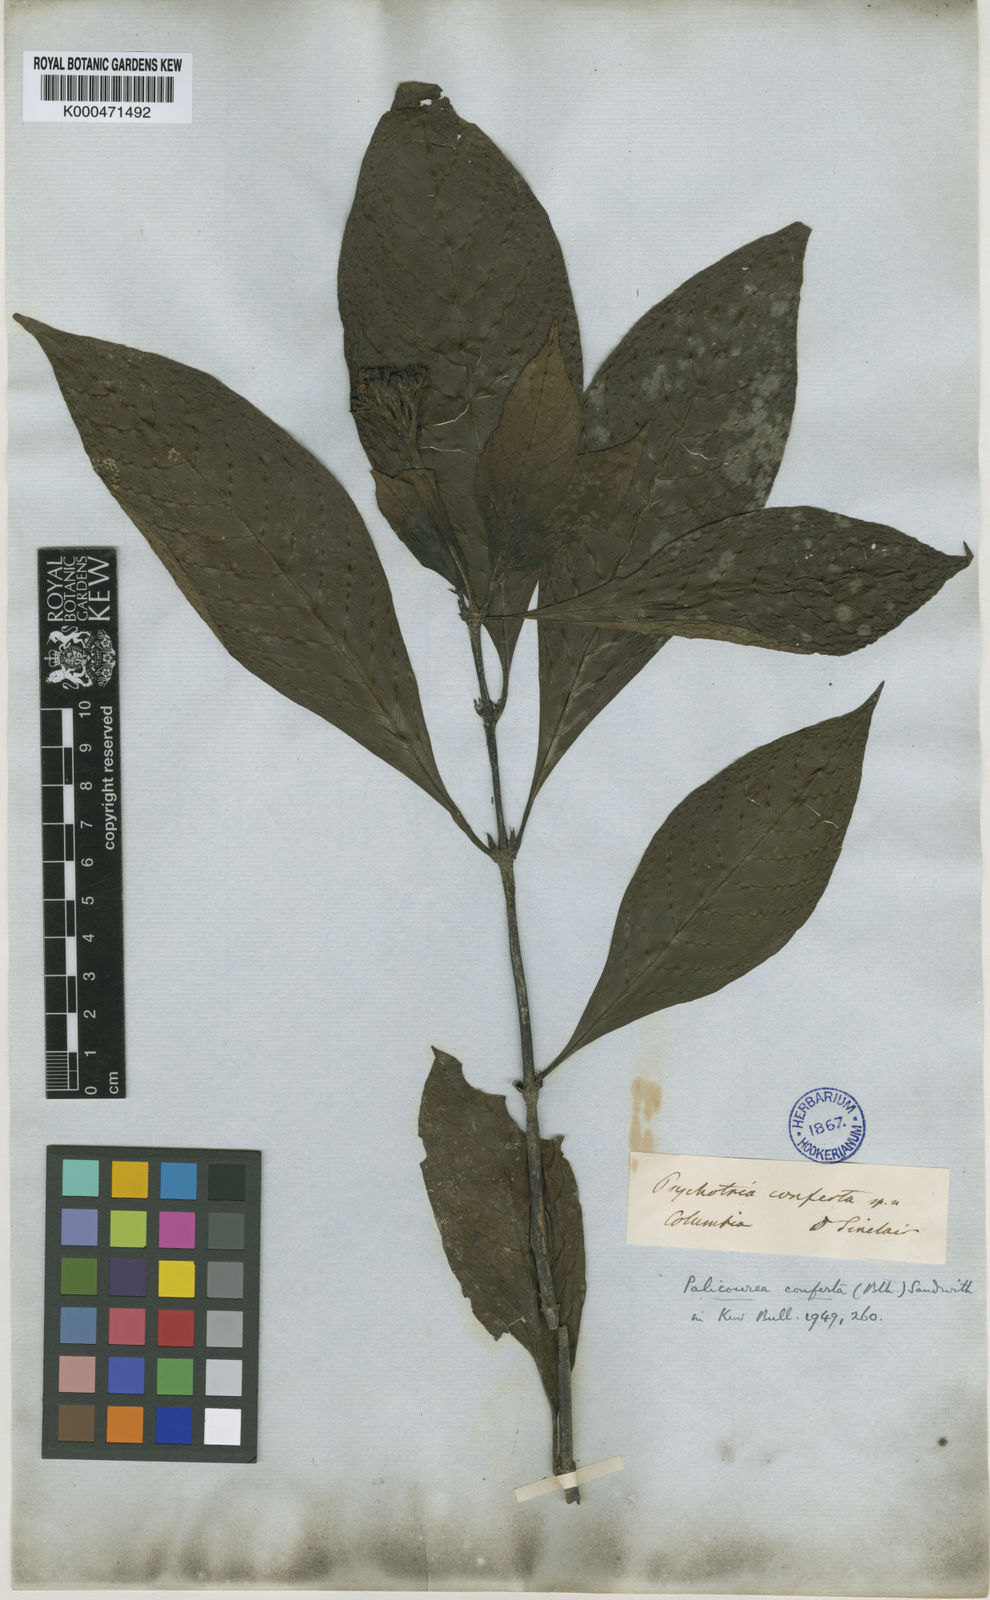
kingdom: Plantae
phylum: Tracheophyta
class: Magnoliopsida
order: Gentianales
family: Rubiaceae
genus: Palicourea
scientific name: Palicourea conferta
